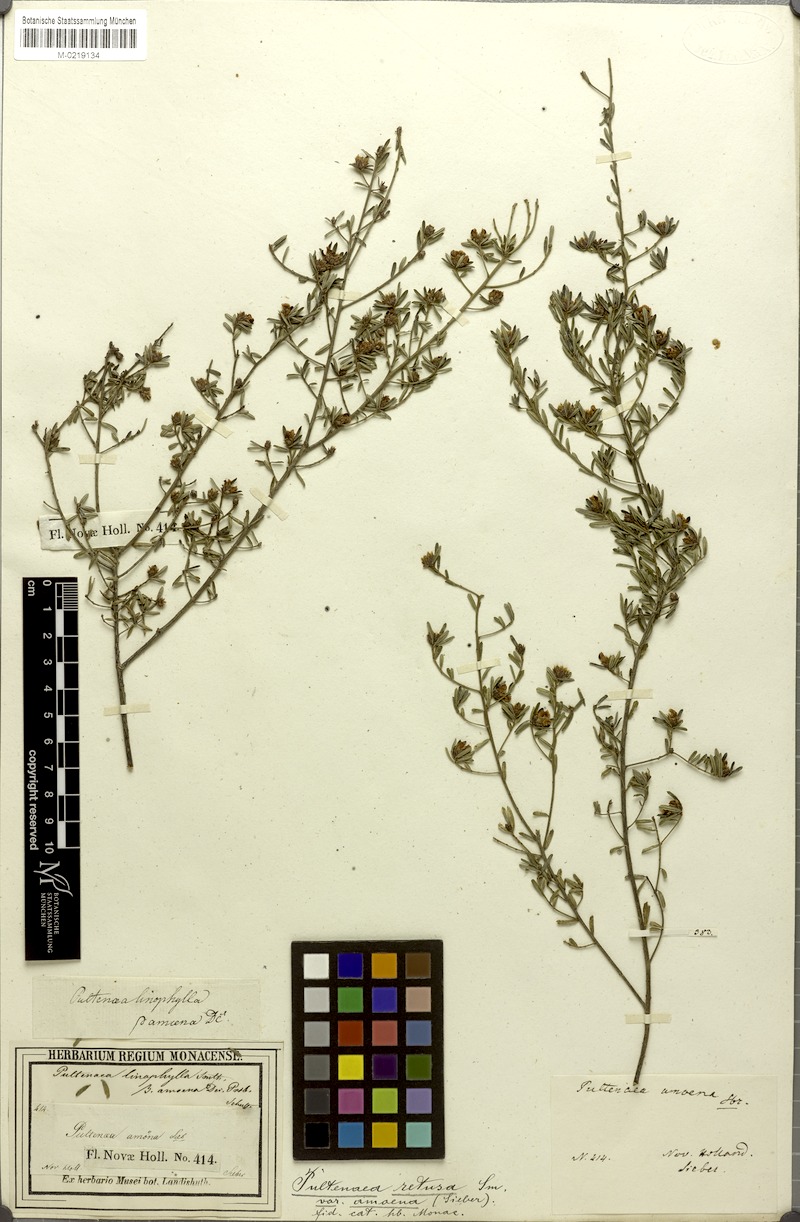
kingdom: Plantae
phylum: Tracheophyta
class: Magnoliopsida
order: Fabales
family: Fabaceae
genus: Pultenaea
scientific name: Pultenaea linophylla
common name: Halo bush-pea
